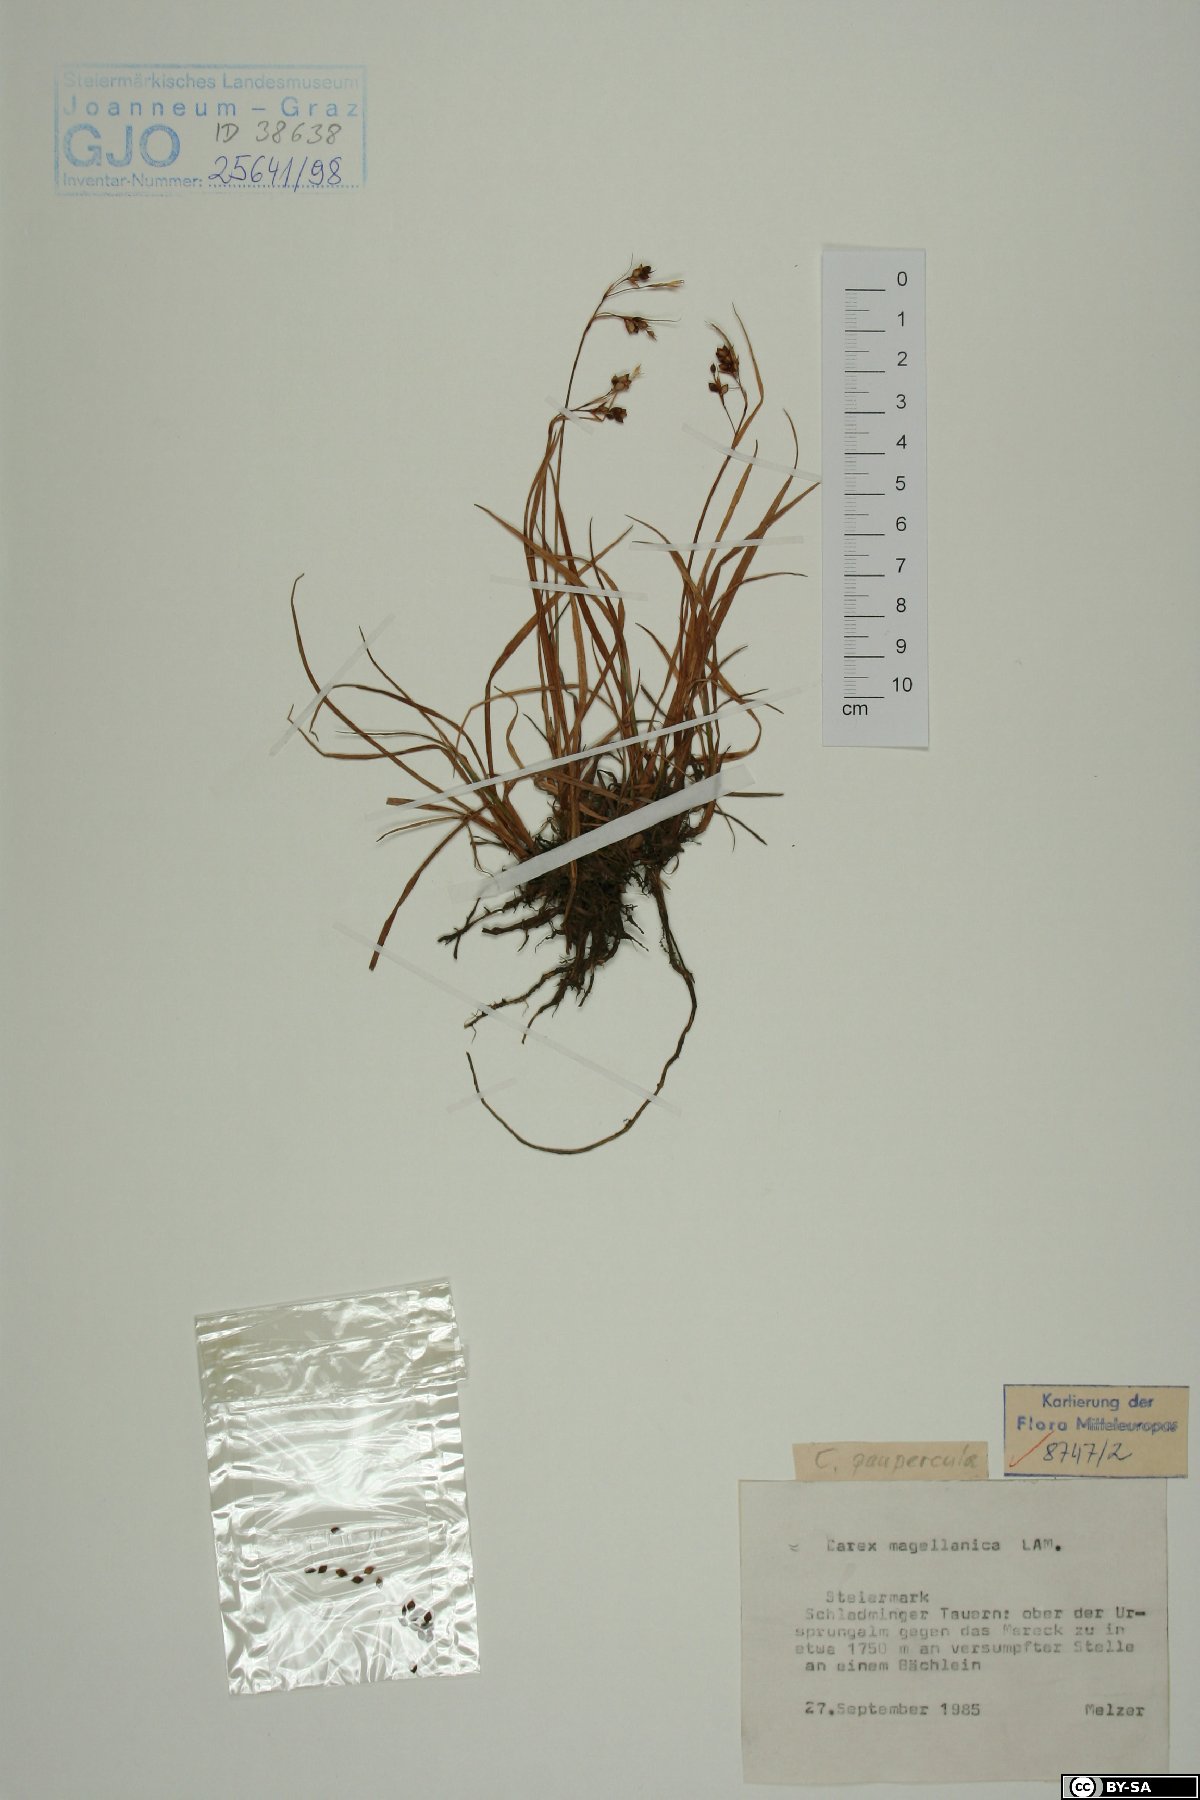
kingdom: Plantae
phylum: Tracheophyta
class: Liliopsida
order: Poales
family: Cyperaceae
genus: Carex
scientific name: Carex magellanica
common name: Bog sedge
